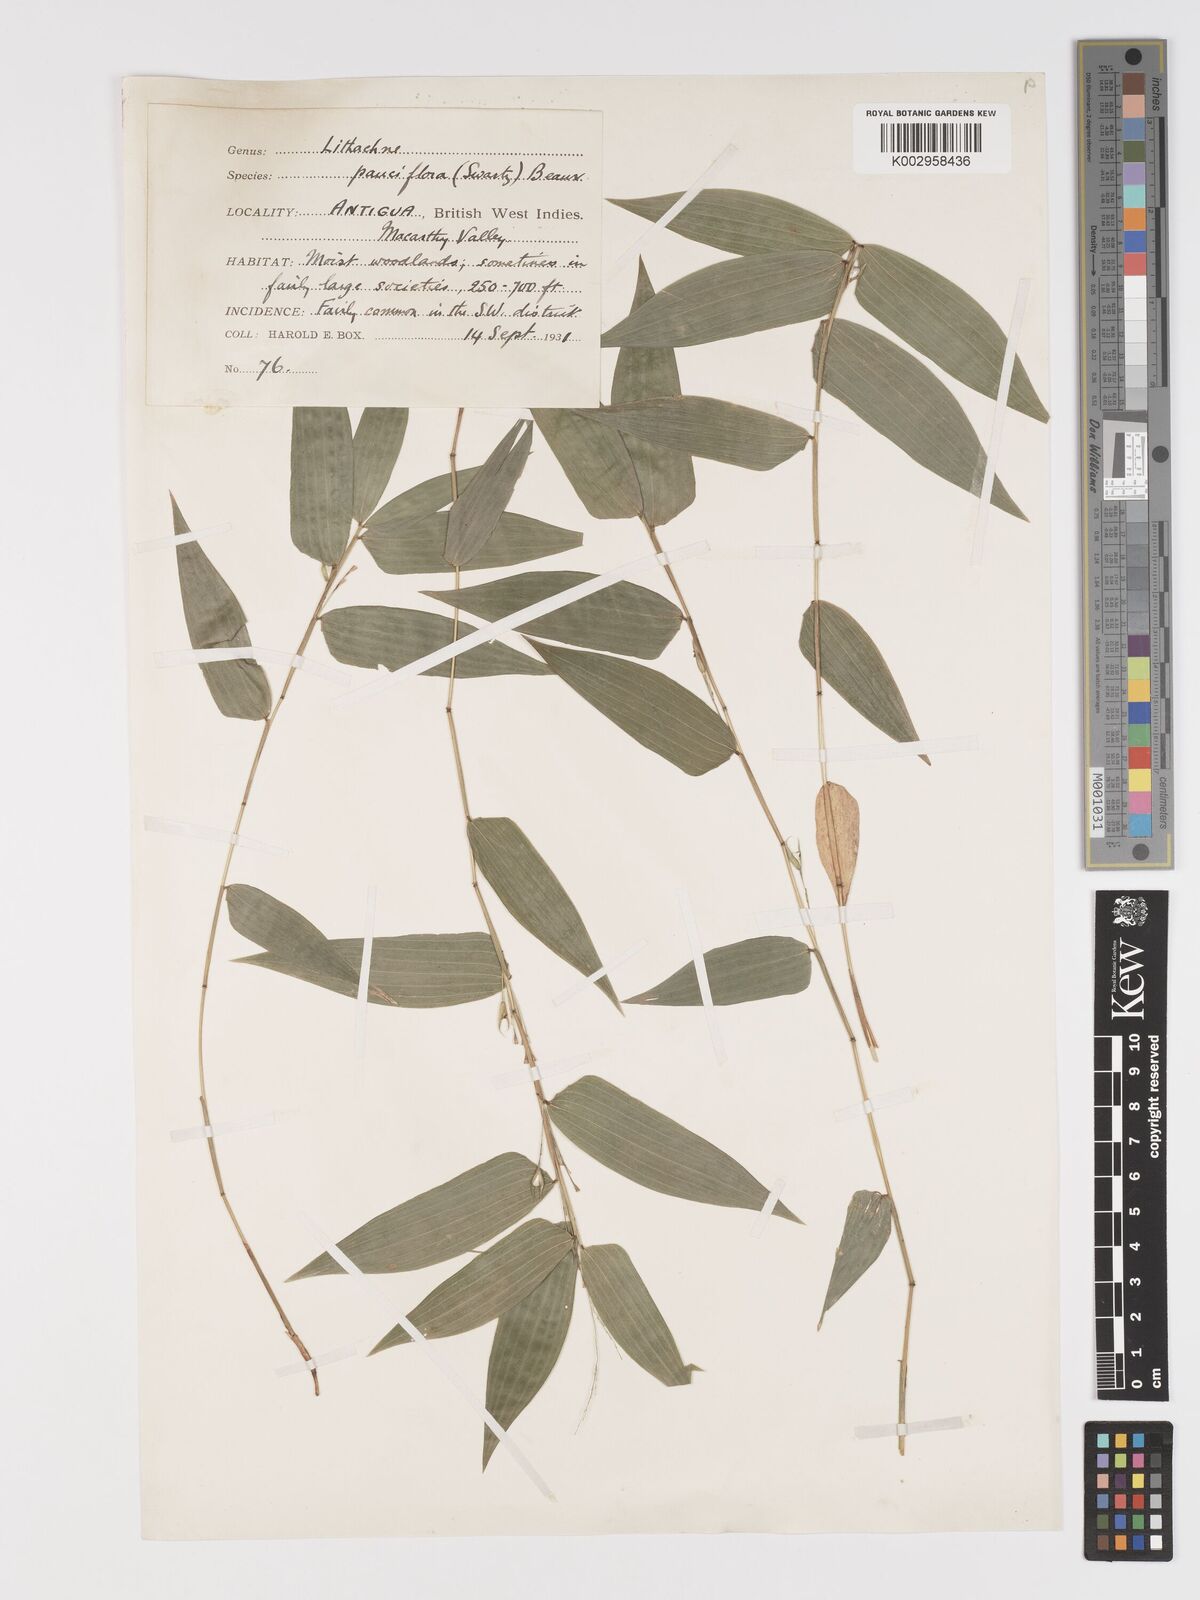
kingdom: Plantae
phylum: Tracheophyta
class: Liliopsida
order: Poales
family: Poaceae
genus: Lithachne
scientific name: Lithachne pauciflora
